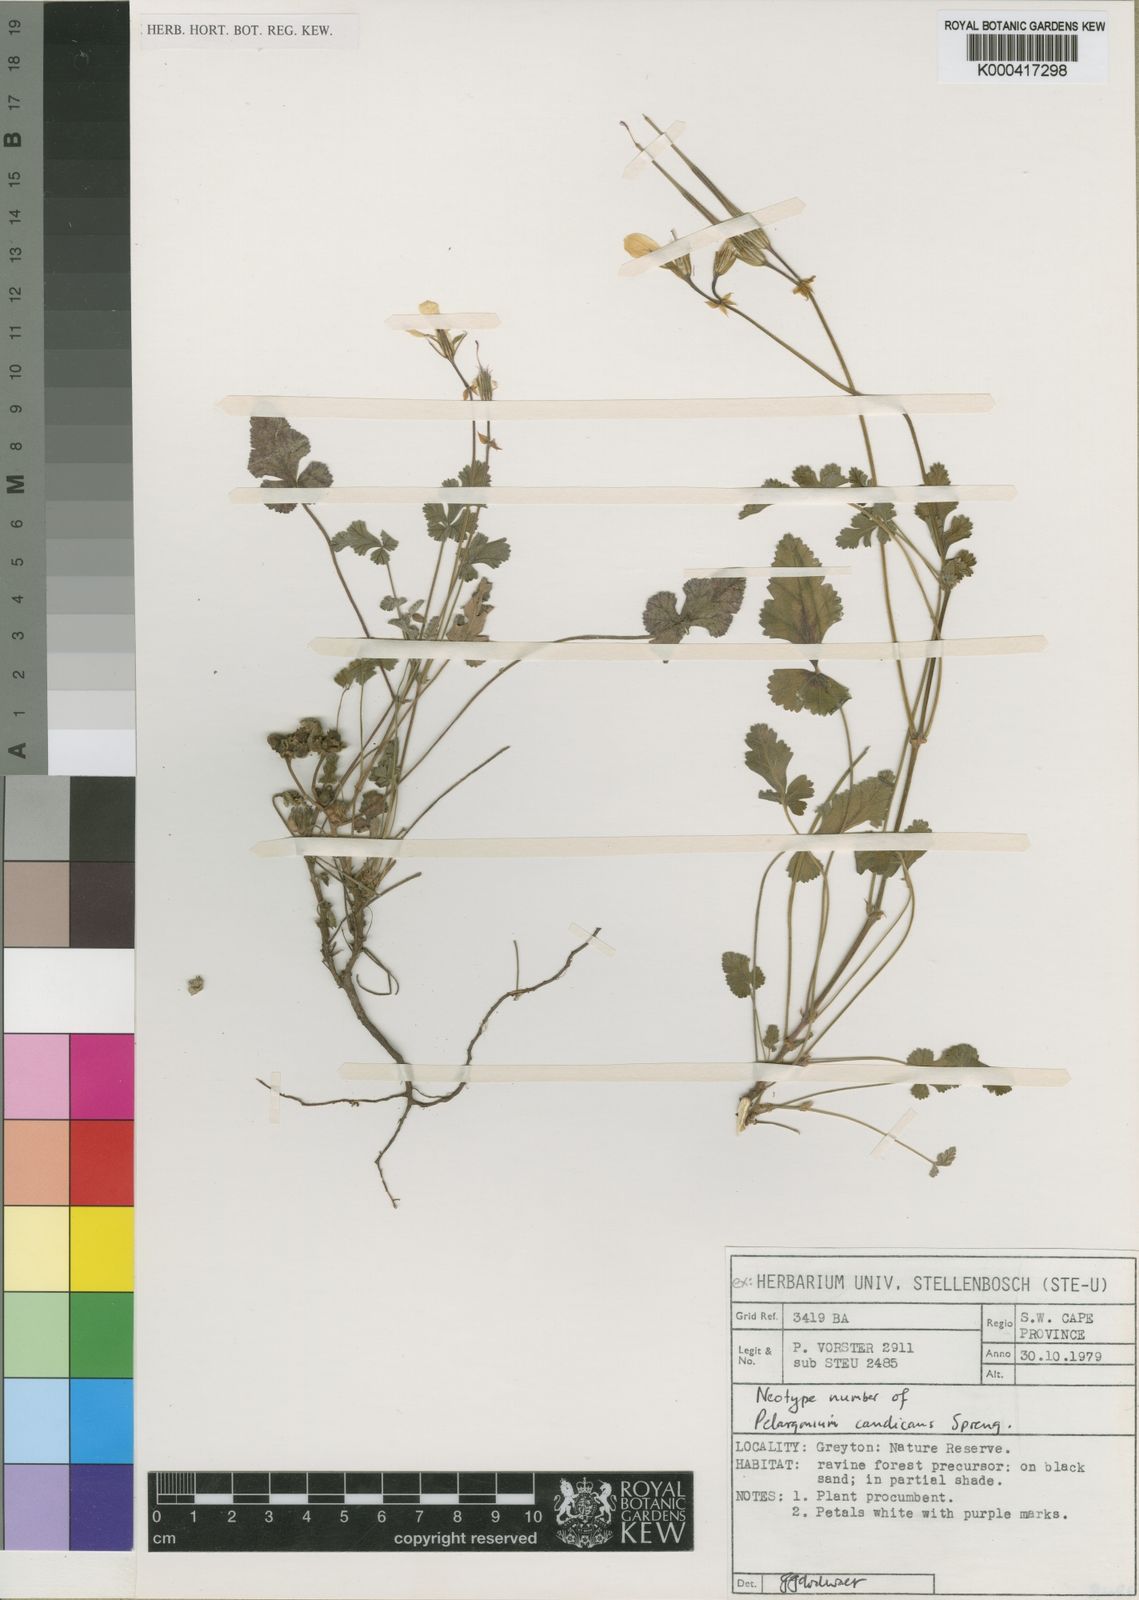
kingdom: Plantae
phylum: Tracheophyta
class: Magnoliopsida
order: Geraniales
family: Geraniaceae
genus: Pelargonium
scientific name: Pelargonium candicans
